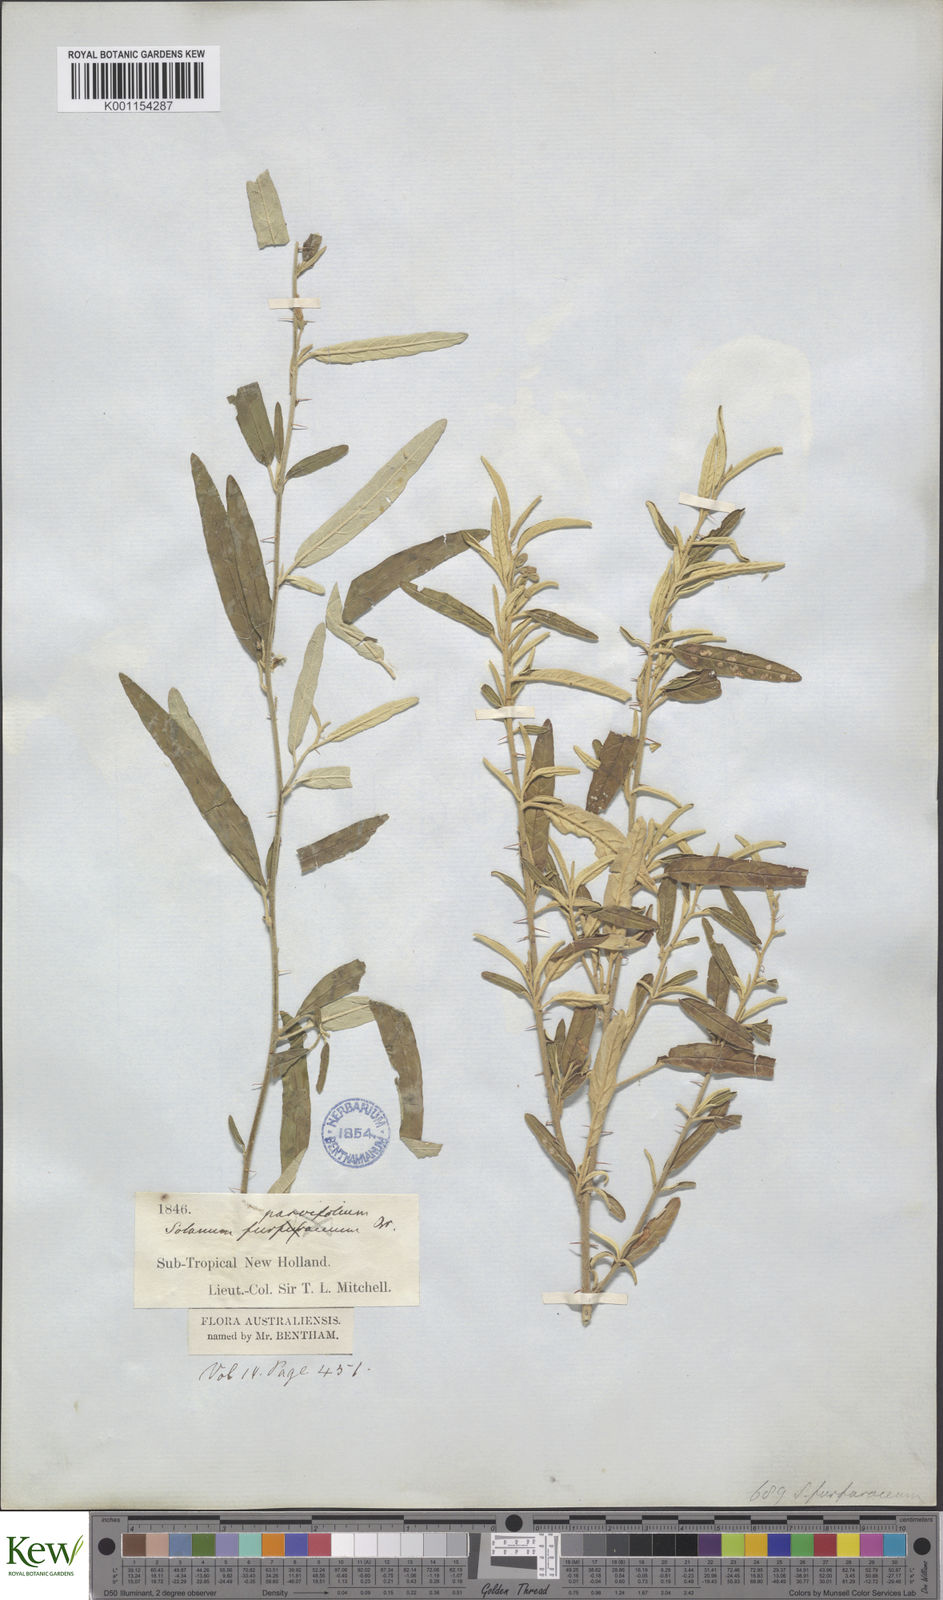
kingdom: Plantae
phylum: Tracheophyta
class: Magnoliopsida
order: Solanales
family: Solanaceae
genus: Solanum
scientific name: Solanum parvifolium
